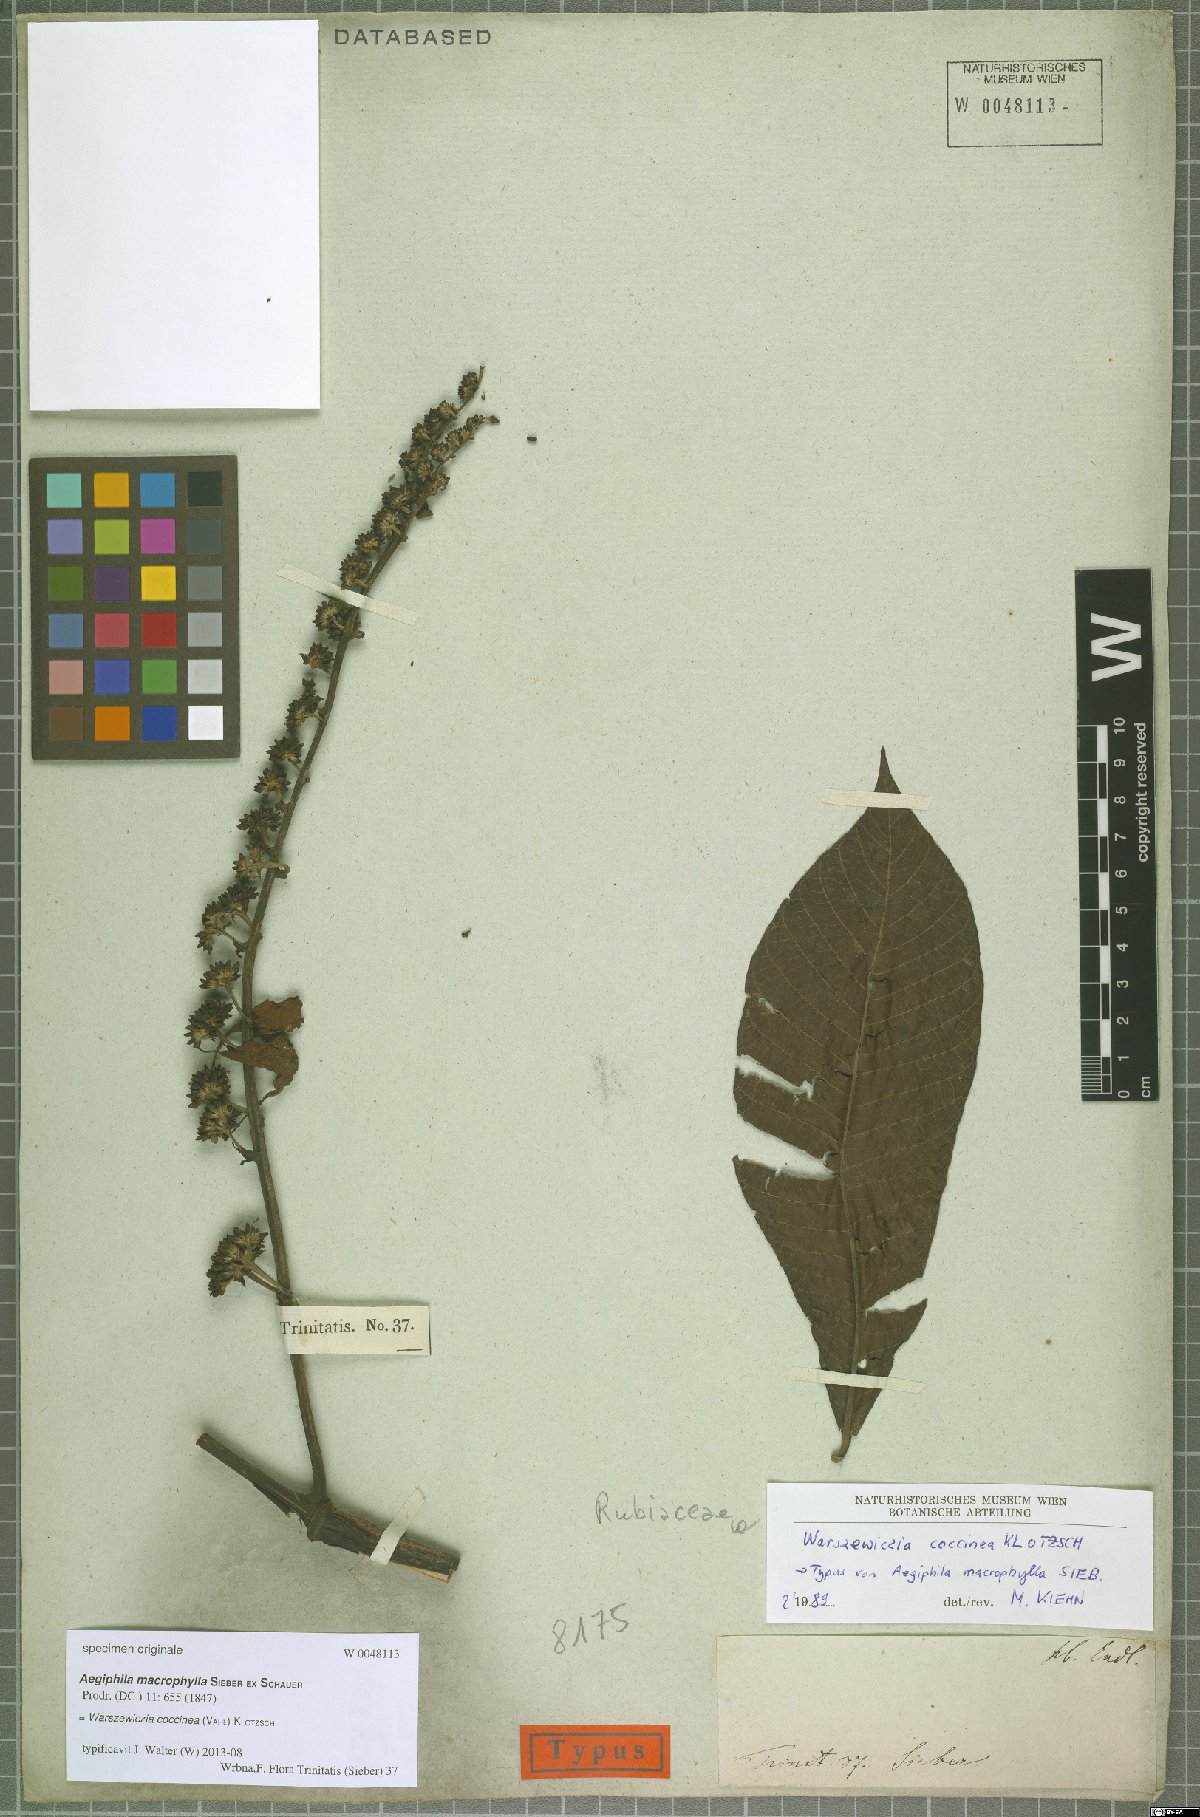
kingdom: Plantae
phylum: Tracheophyta
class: Magnoliopsida
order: Gentianales
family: Rubiaceae
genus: Warszewiczia
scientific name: Warszewiczia coccinea
